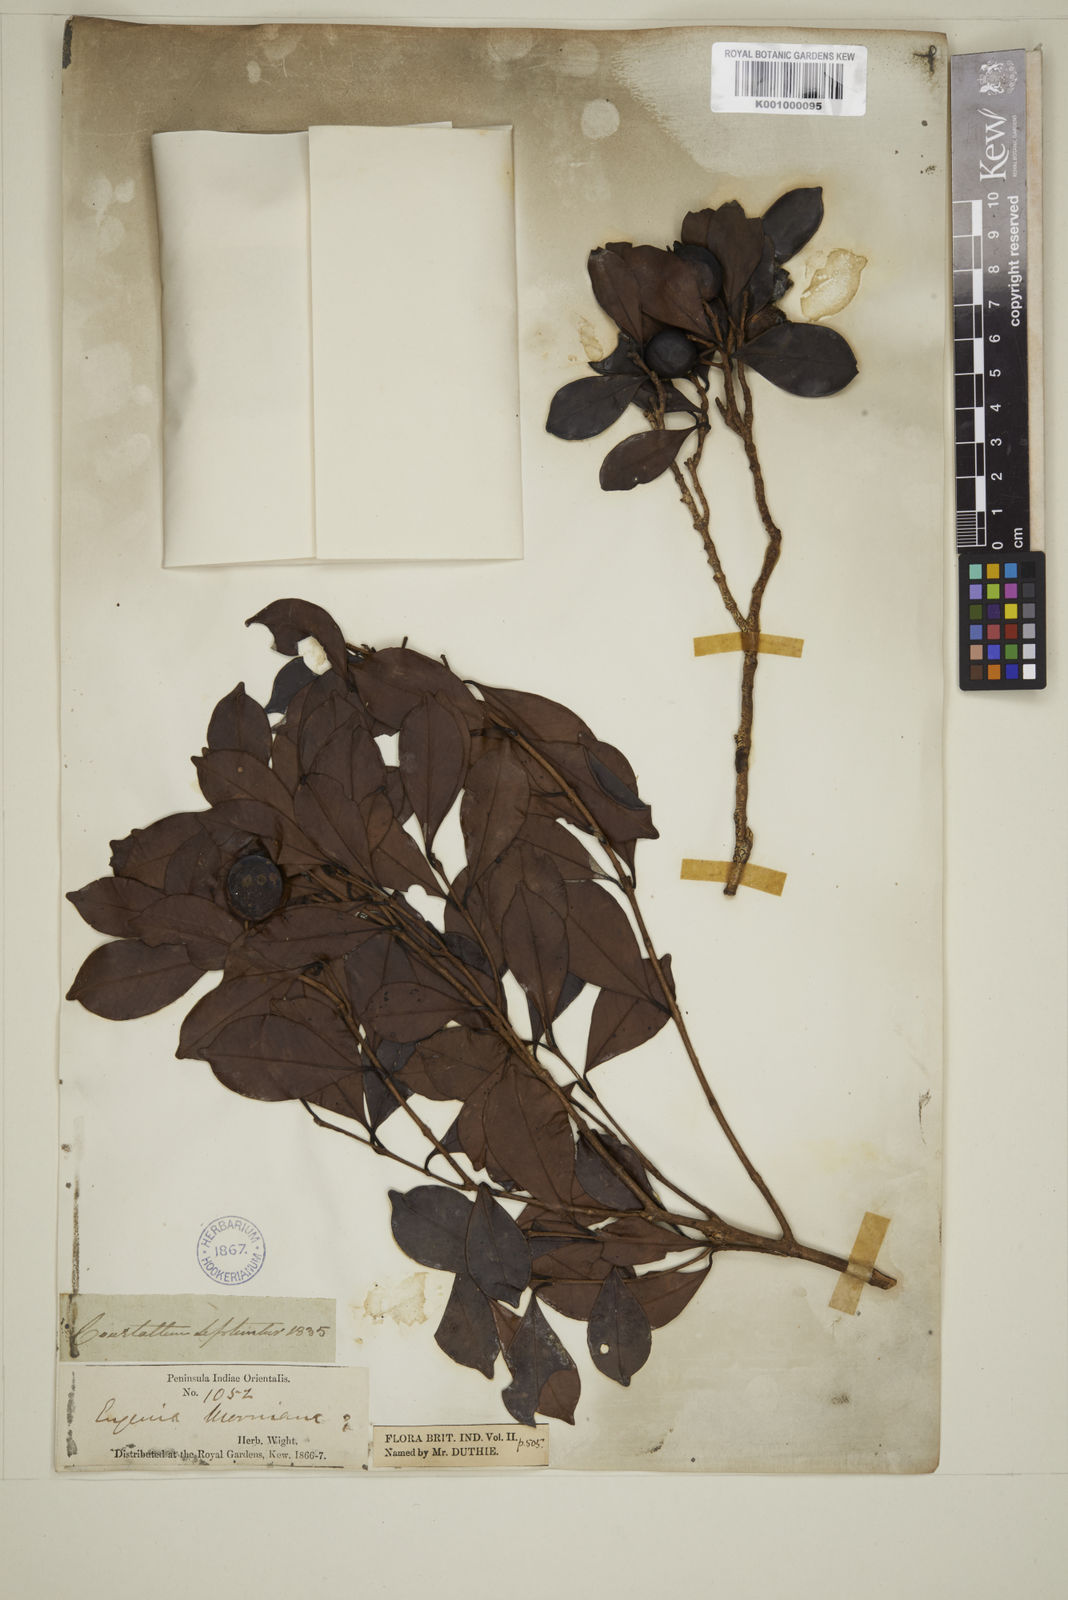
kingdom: Plantae
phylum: Tracheophyta
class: Magnoliopsida
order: Myrtales
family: Myrtaceae
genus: Eugenia
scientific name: Eugenia thwaitesii
